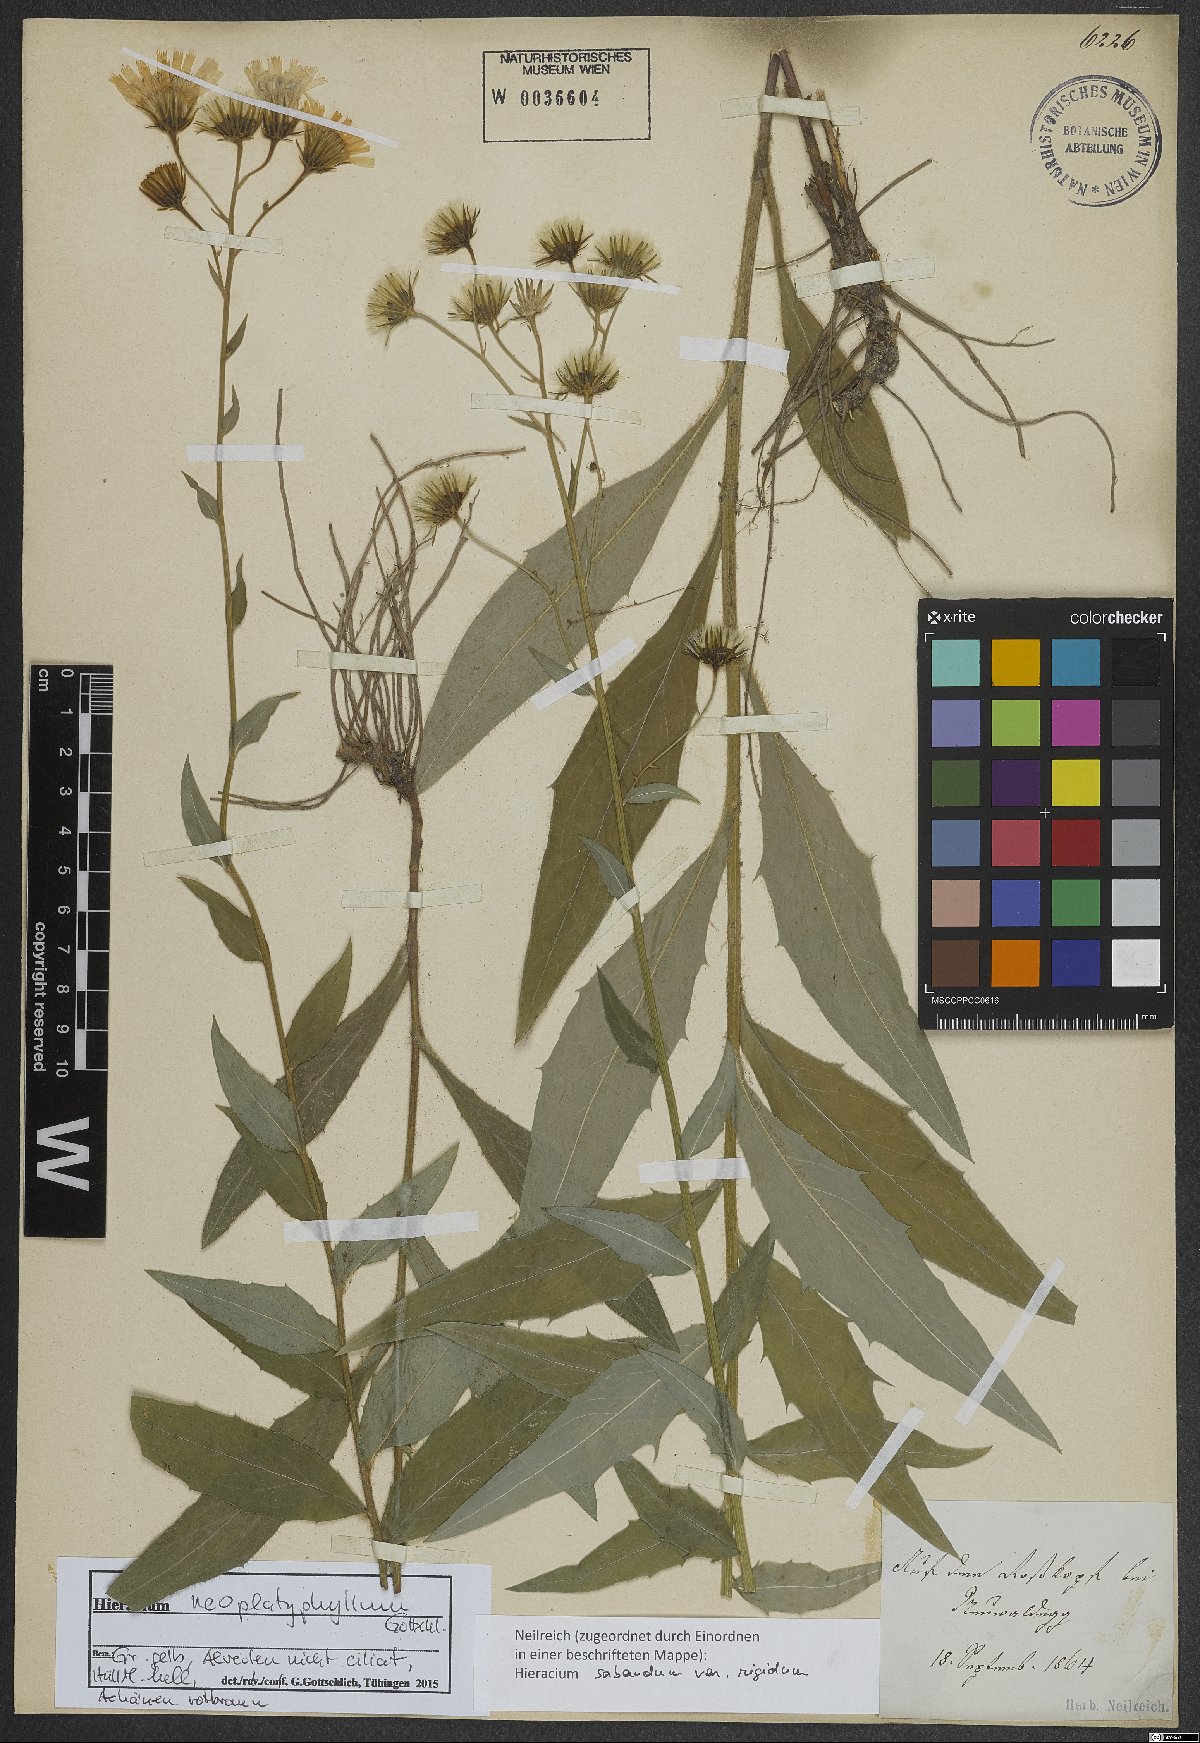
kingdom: Plantae
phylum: Tracheophyta
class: Magnoliopsida
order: Asterales
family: Asteraceae
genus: Hieracium
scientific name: Hieracium neoplatyphyllum
